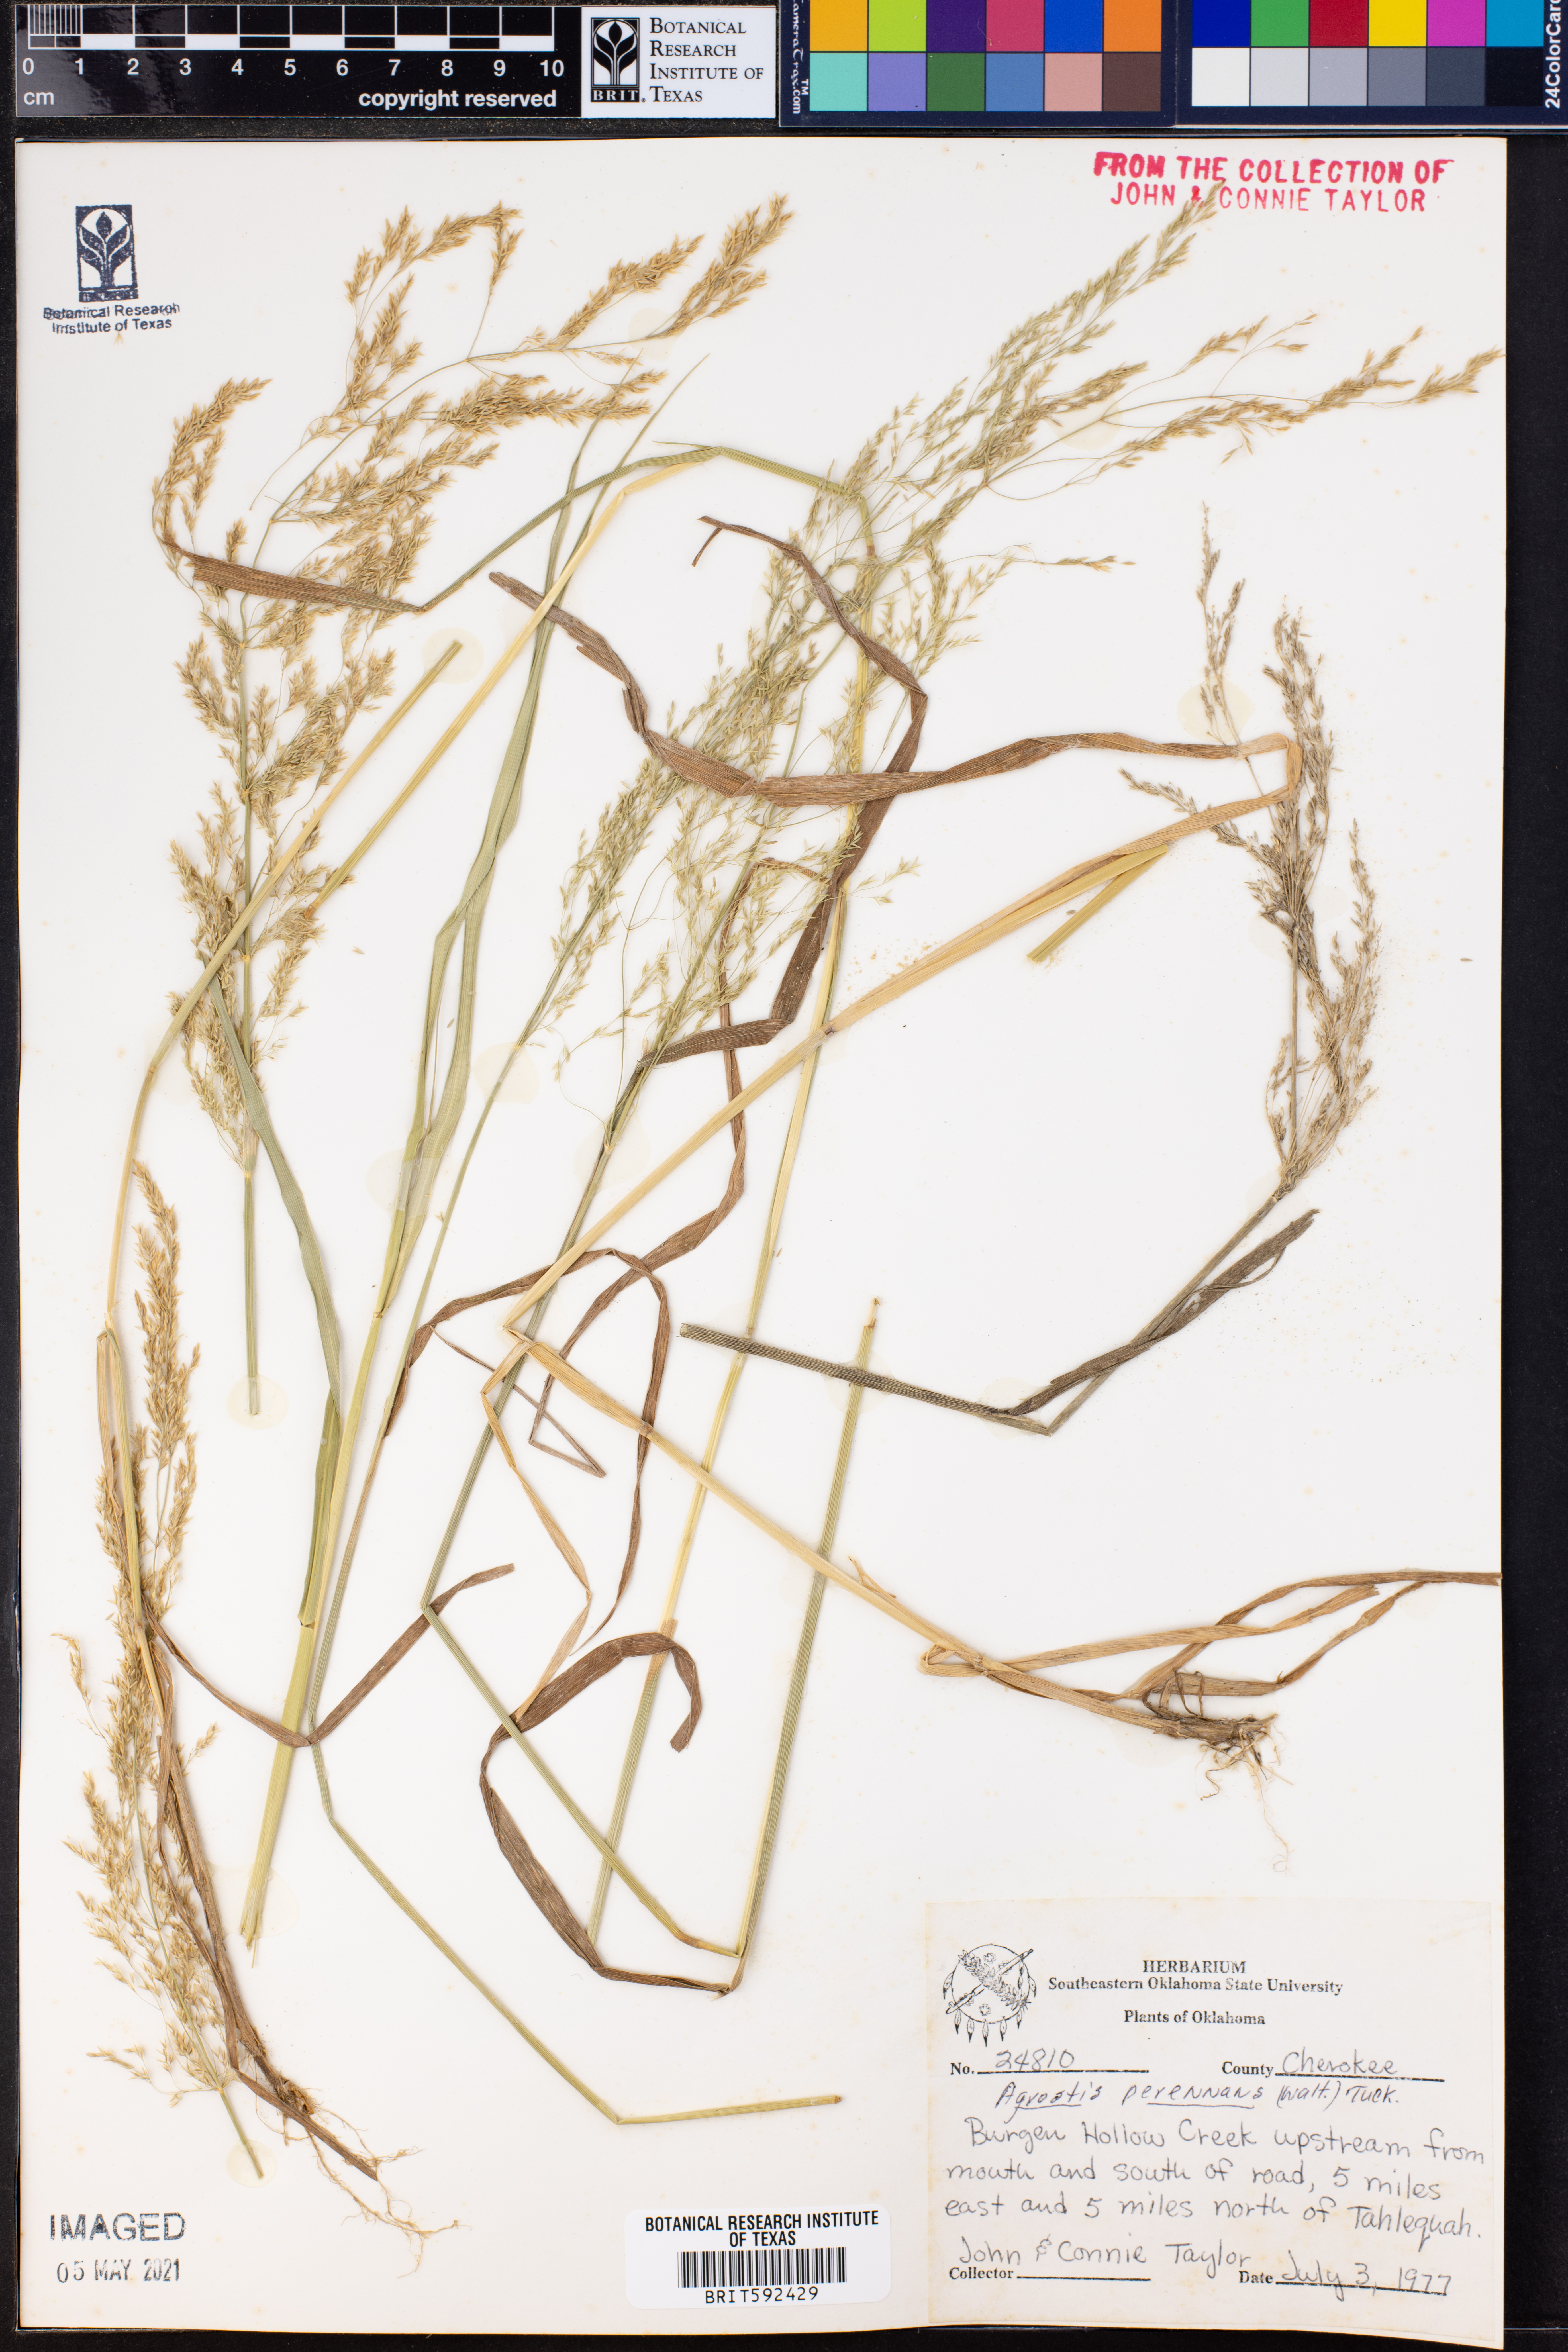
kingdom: Plantae
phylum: Tracheophyta
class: Liliopsida
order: Poales
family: Poaceae
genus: Agrostis
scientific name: Agrostis perennans
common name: Autumn bent
